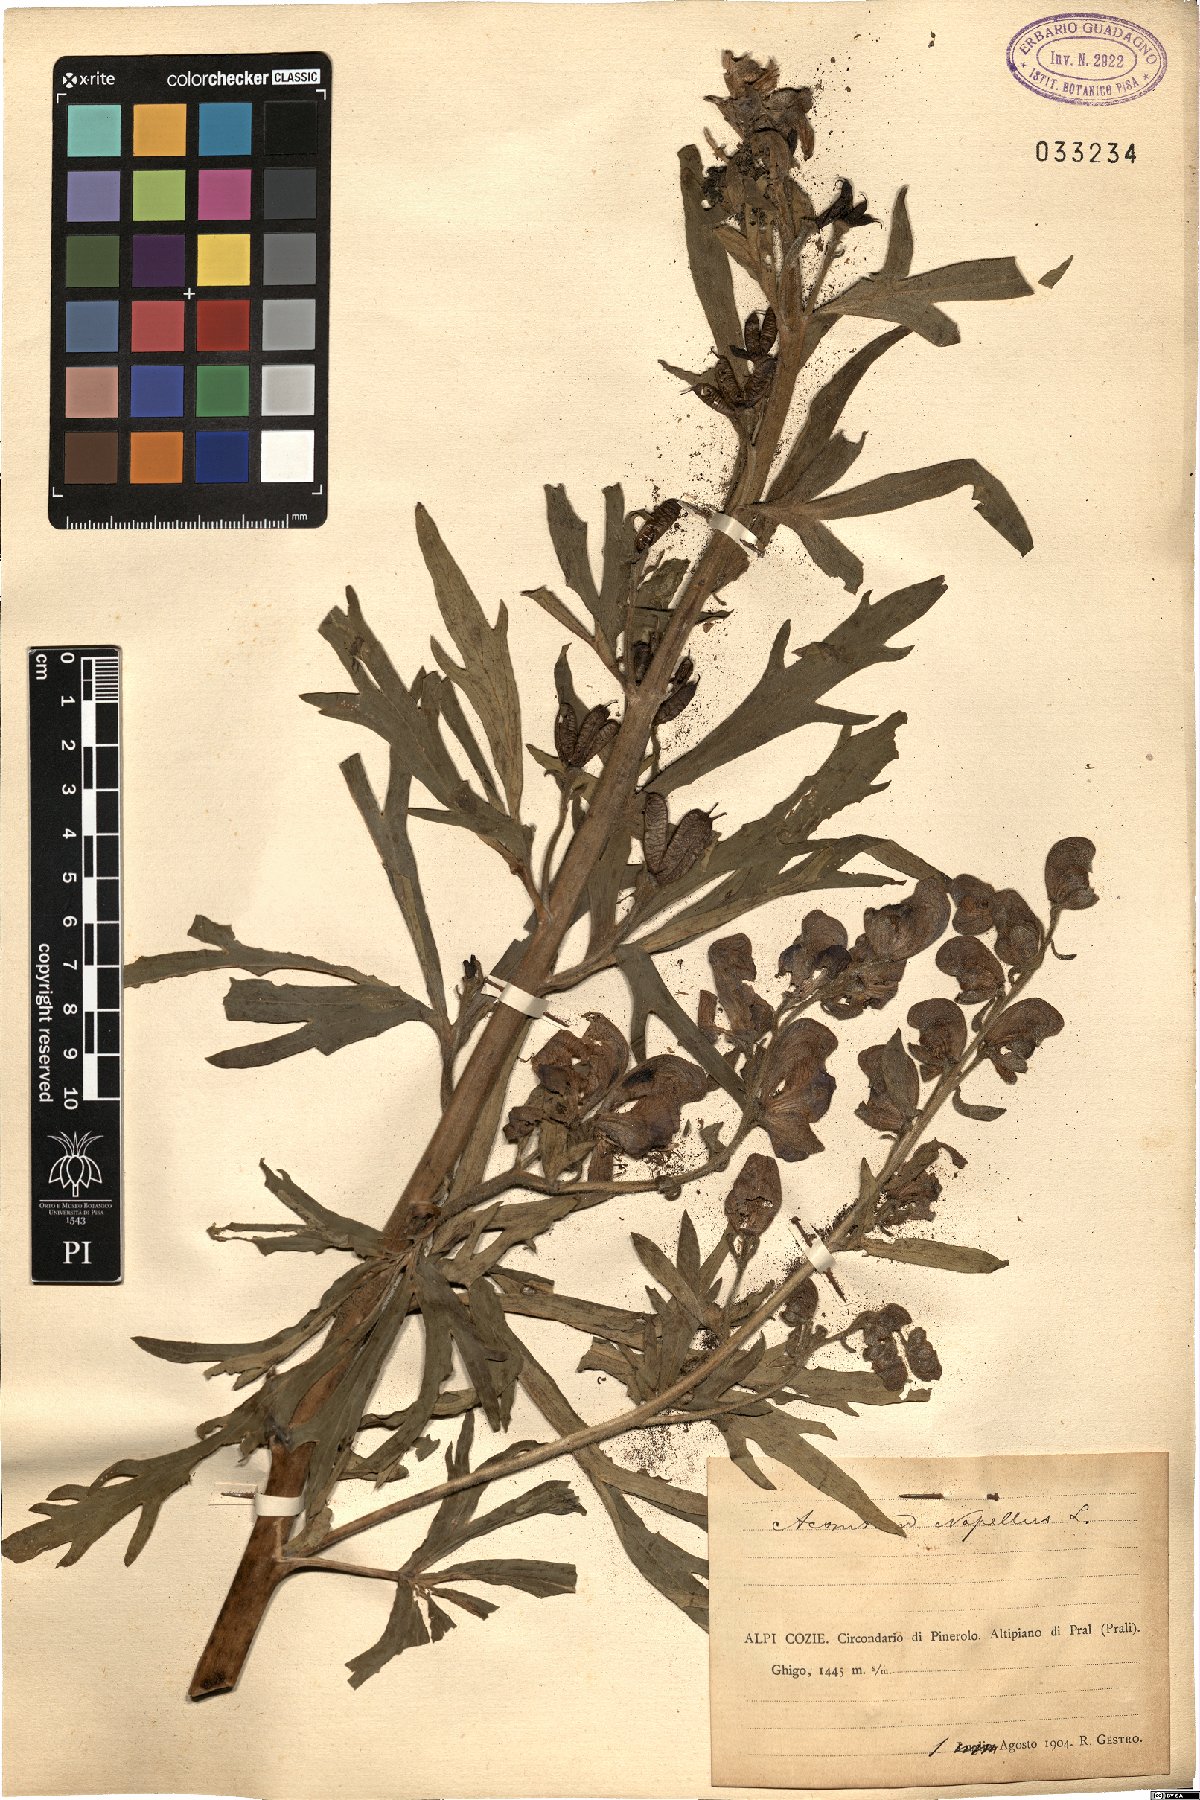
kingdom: Plantae
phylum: Tracheophyta
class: Magnoliopsida
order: Ranunculales
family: Ranunculaceae
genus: Aconitum
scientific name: Aconitum napellus
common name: Garden monkshood
